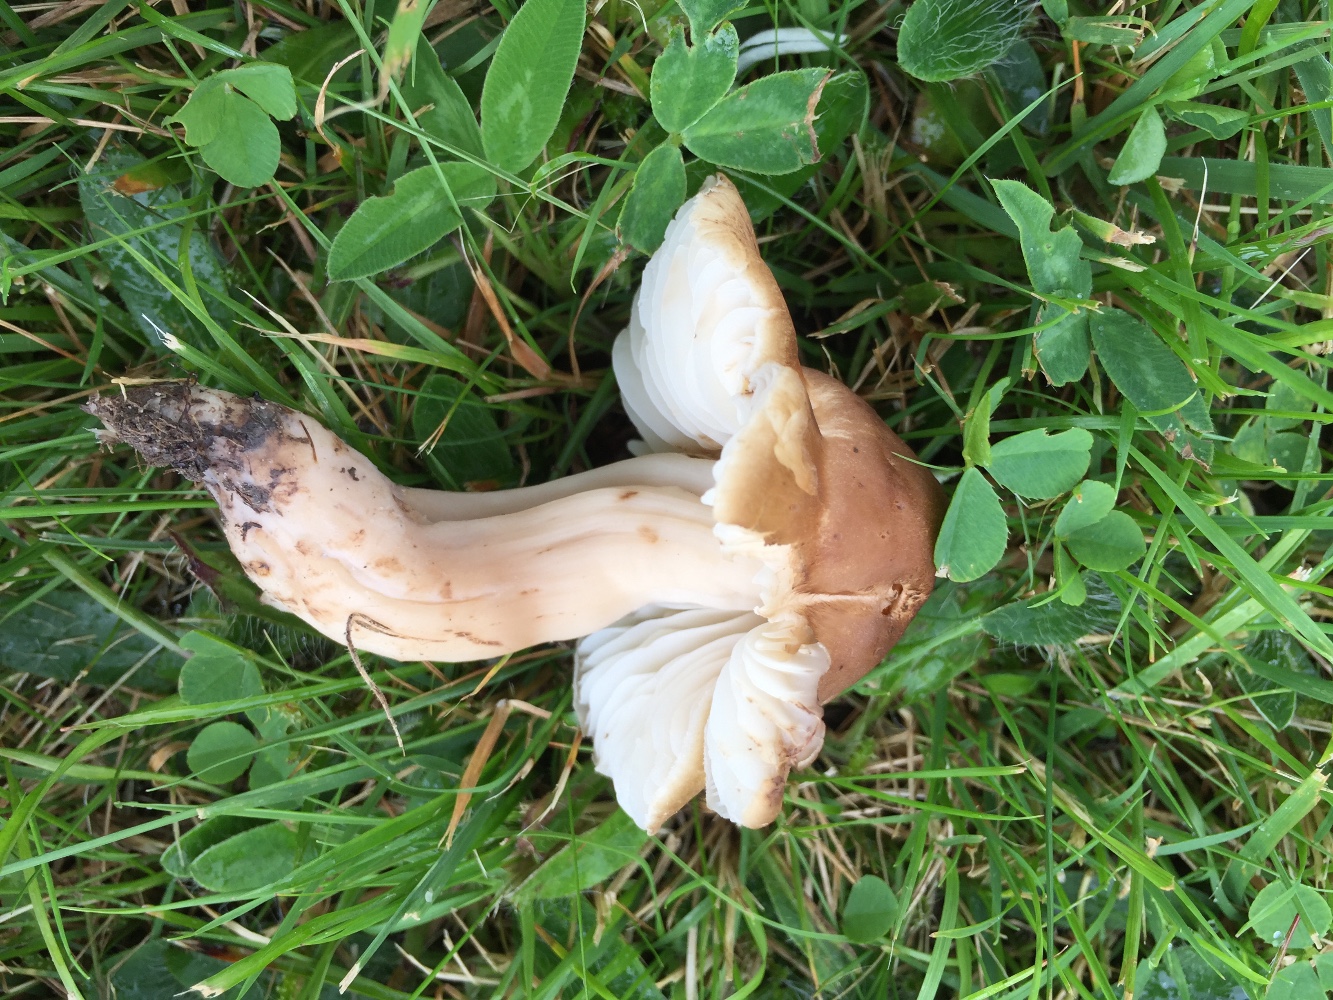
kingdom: Fungi
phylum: Basidiomycota
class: Agaricomycetes
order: Agaricales
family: Hygrophoraceae
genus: Hygrocybe
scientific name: Hygrocybe ingrata
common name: Jensens vokshat
